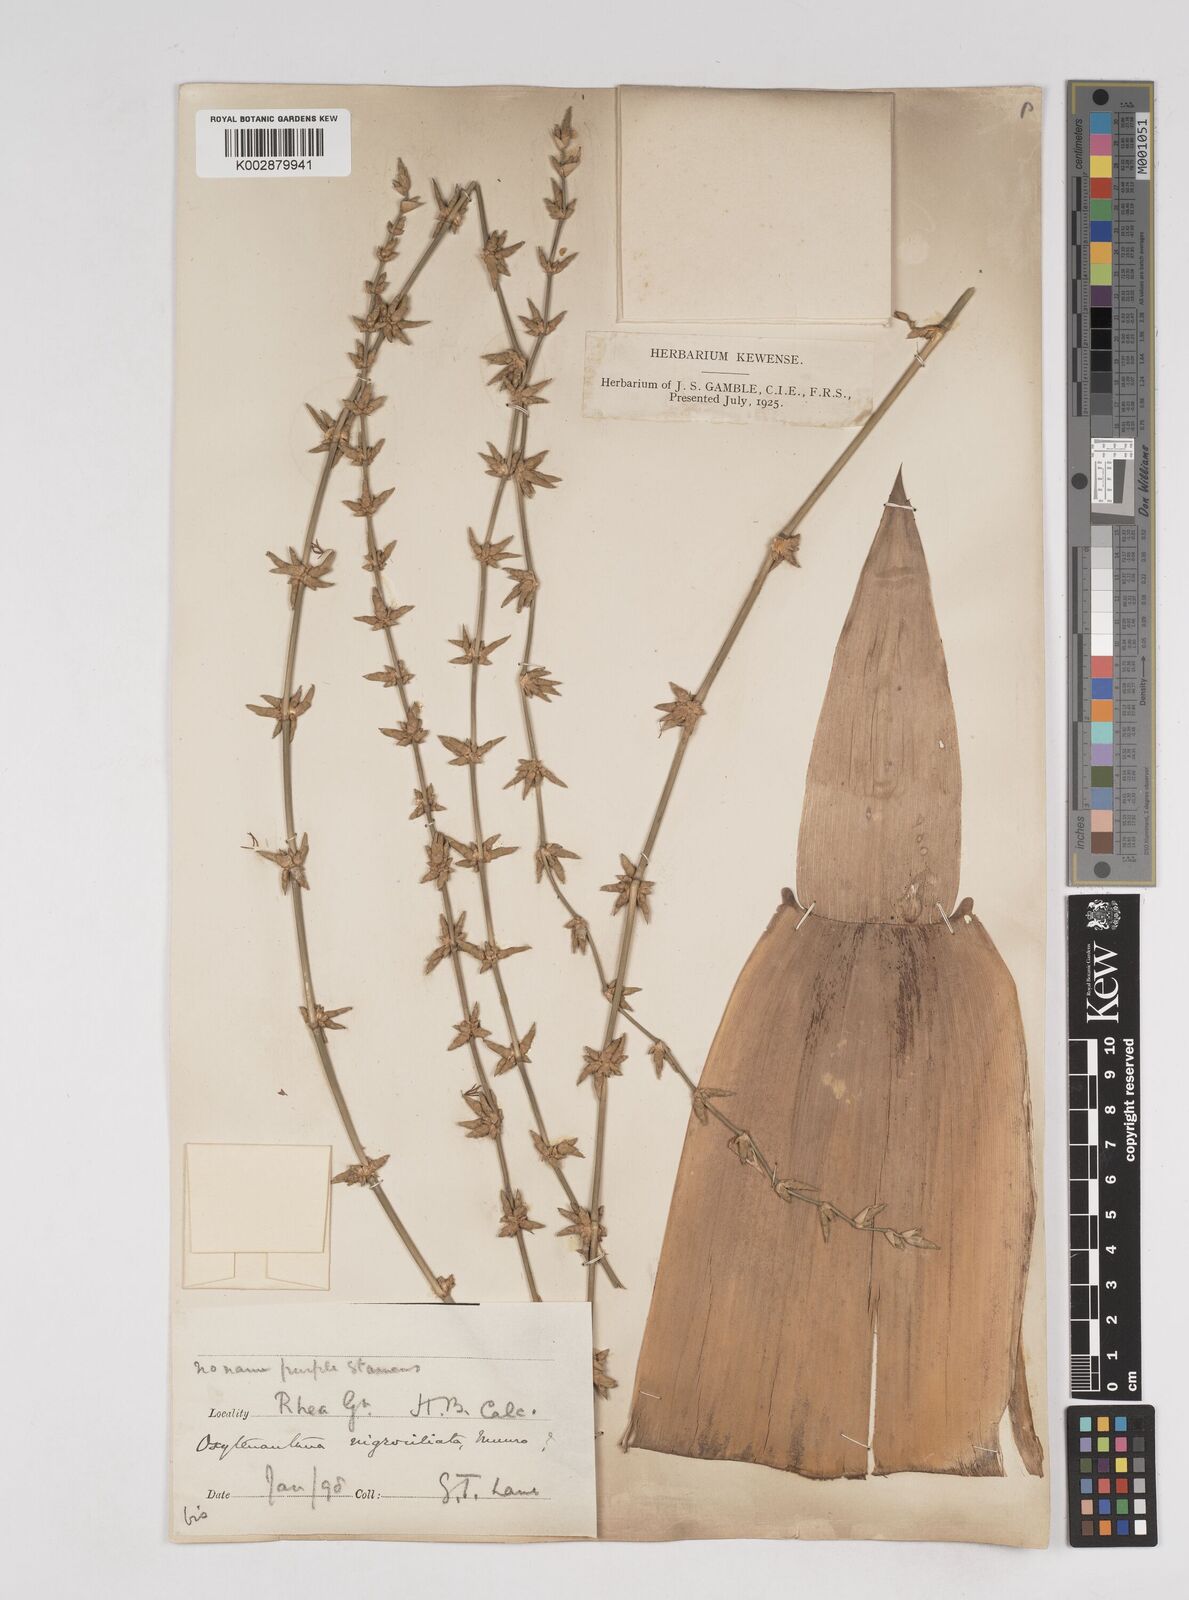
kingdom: Plantae
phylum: Tracheophyta
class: Liliopsida
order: Poales
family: Poaceae
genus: Gigantochloa
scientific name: Gigantochloa nigrociliata
